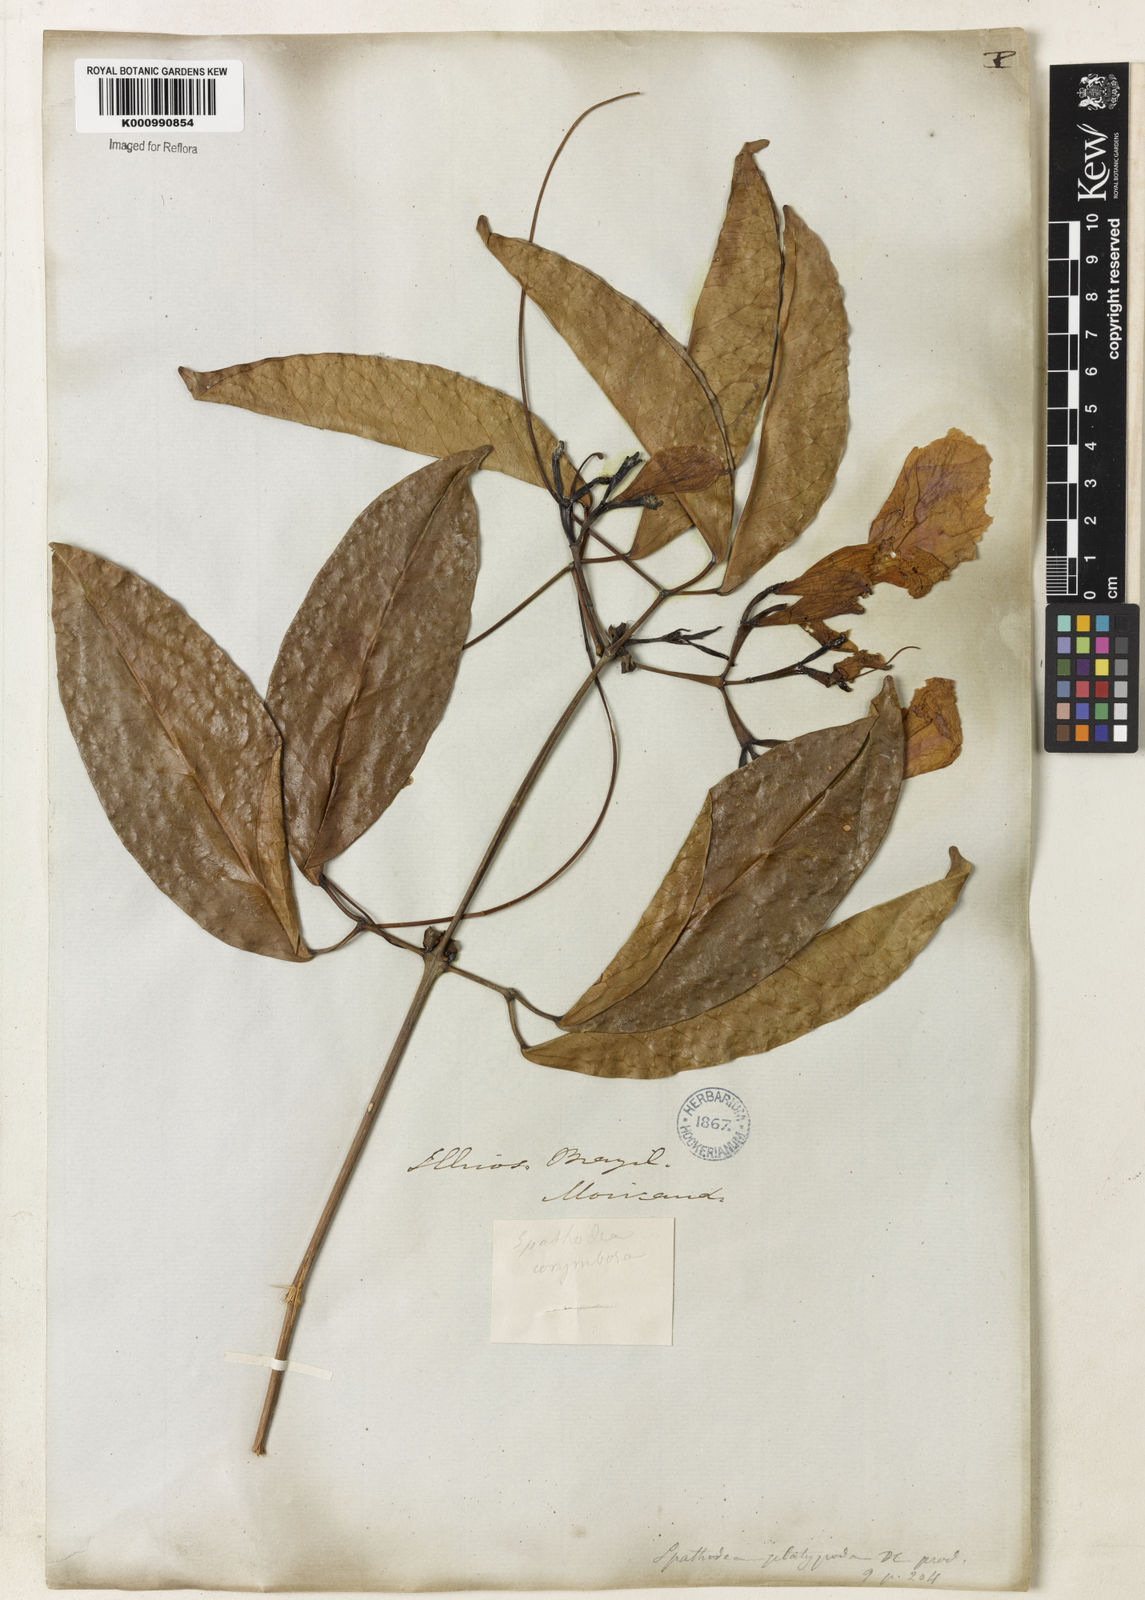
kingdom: Plantae
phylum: Tracheophyta
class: Magnoliopsida
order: Lamiales
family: Bignoniaceae
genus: Bignonia
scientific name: Bignonia corymbosa
